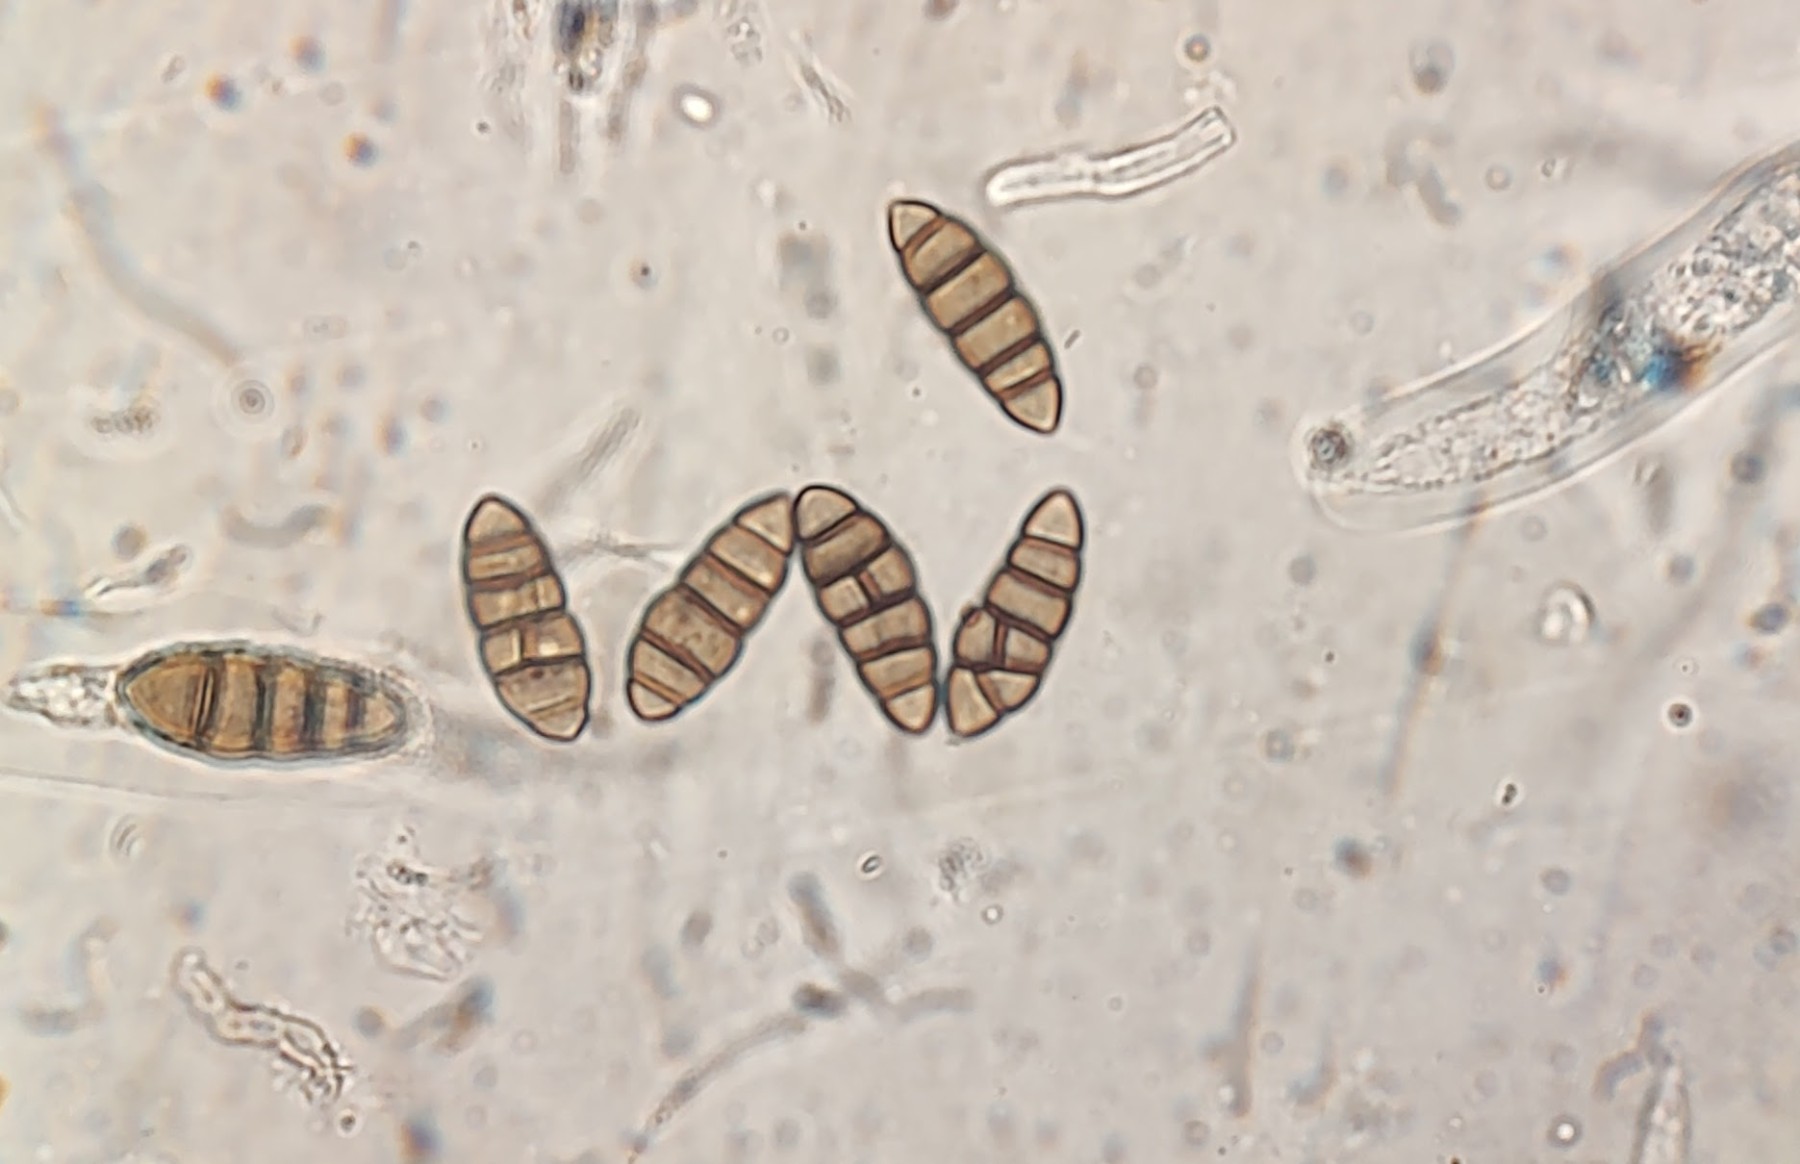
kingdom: Fungi
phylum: Ascomycota
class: Dothideomycetes
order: Pleosporales
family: Lophiostomataceae
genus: Lophiostoma
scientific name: Lophiostoma compressum
